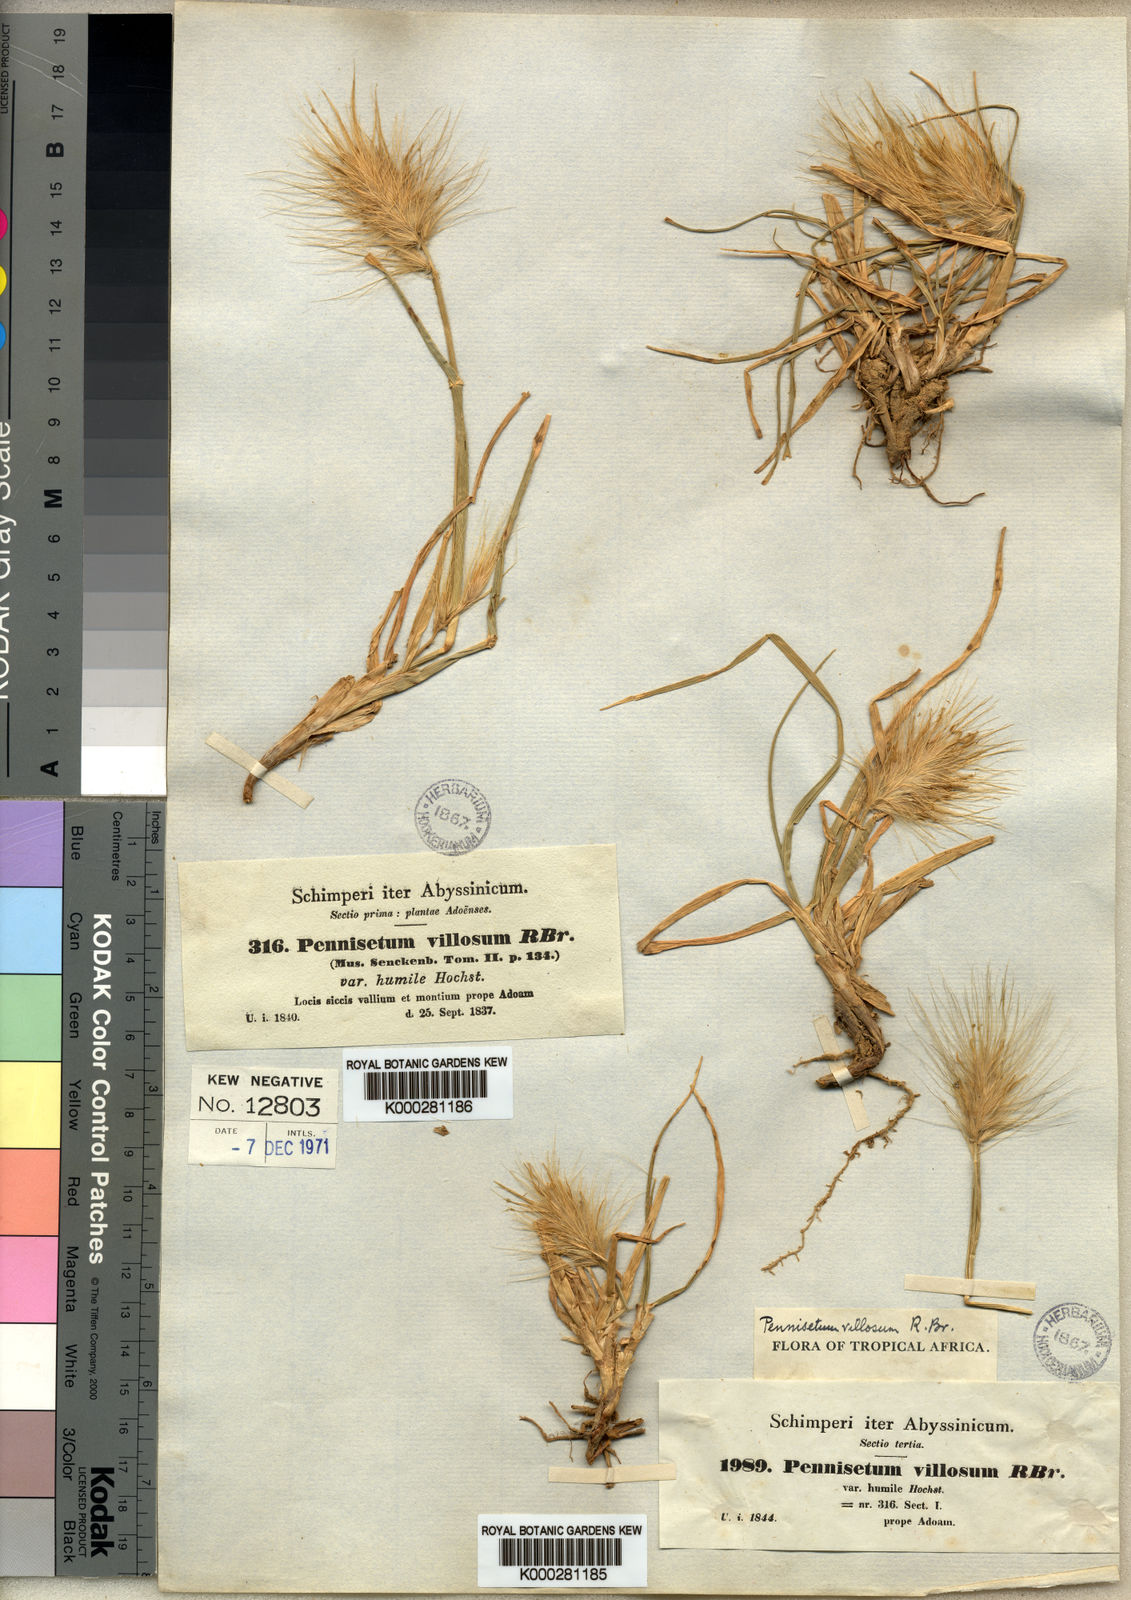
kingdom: Plantae
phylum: Tracheophyta
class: Liliopsida
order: Poales
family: Poaceae
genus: Cenchrus
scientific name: Cenchrus longisetus
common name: Feathertop
